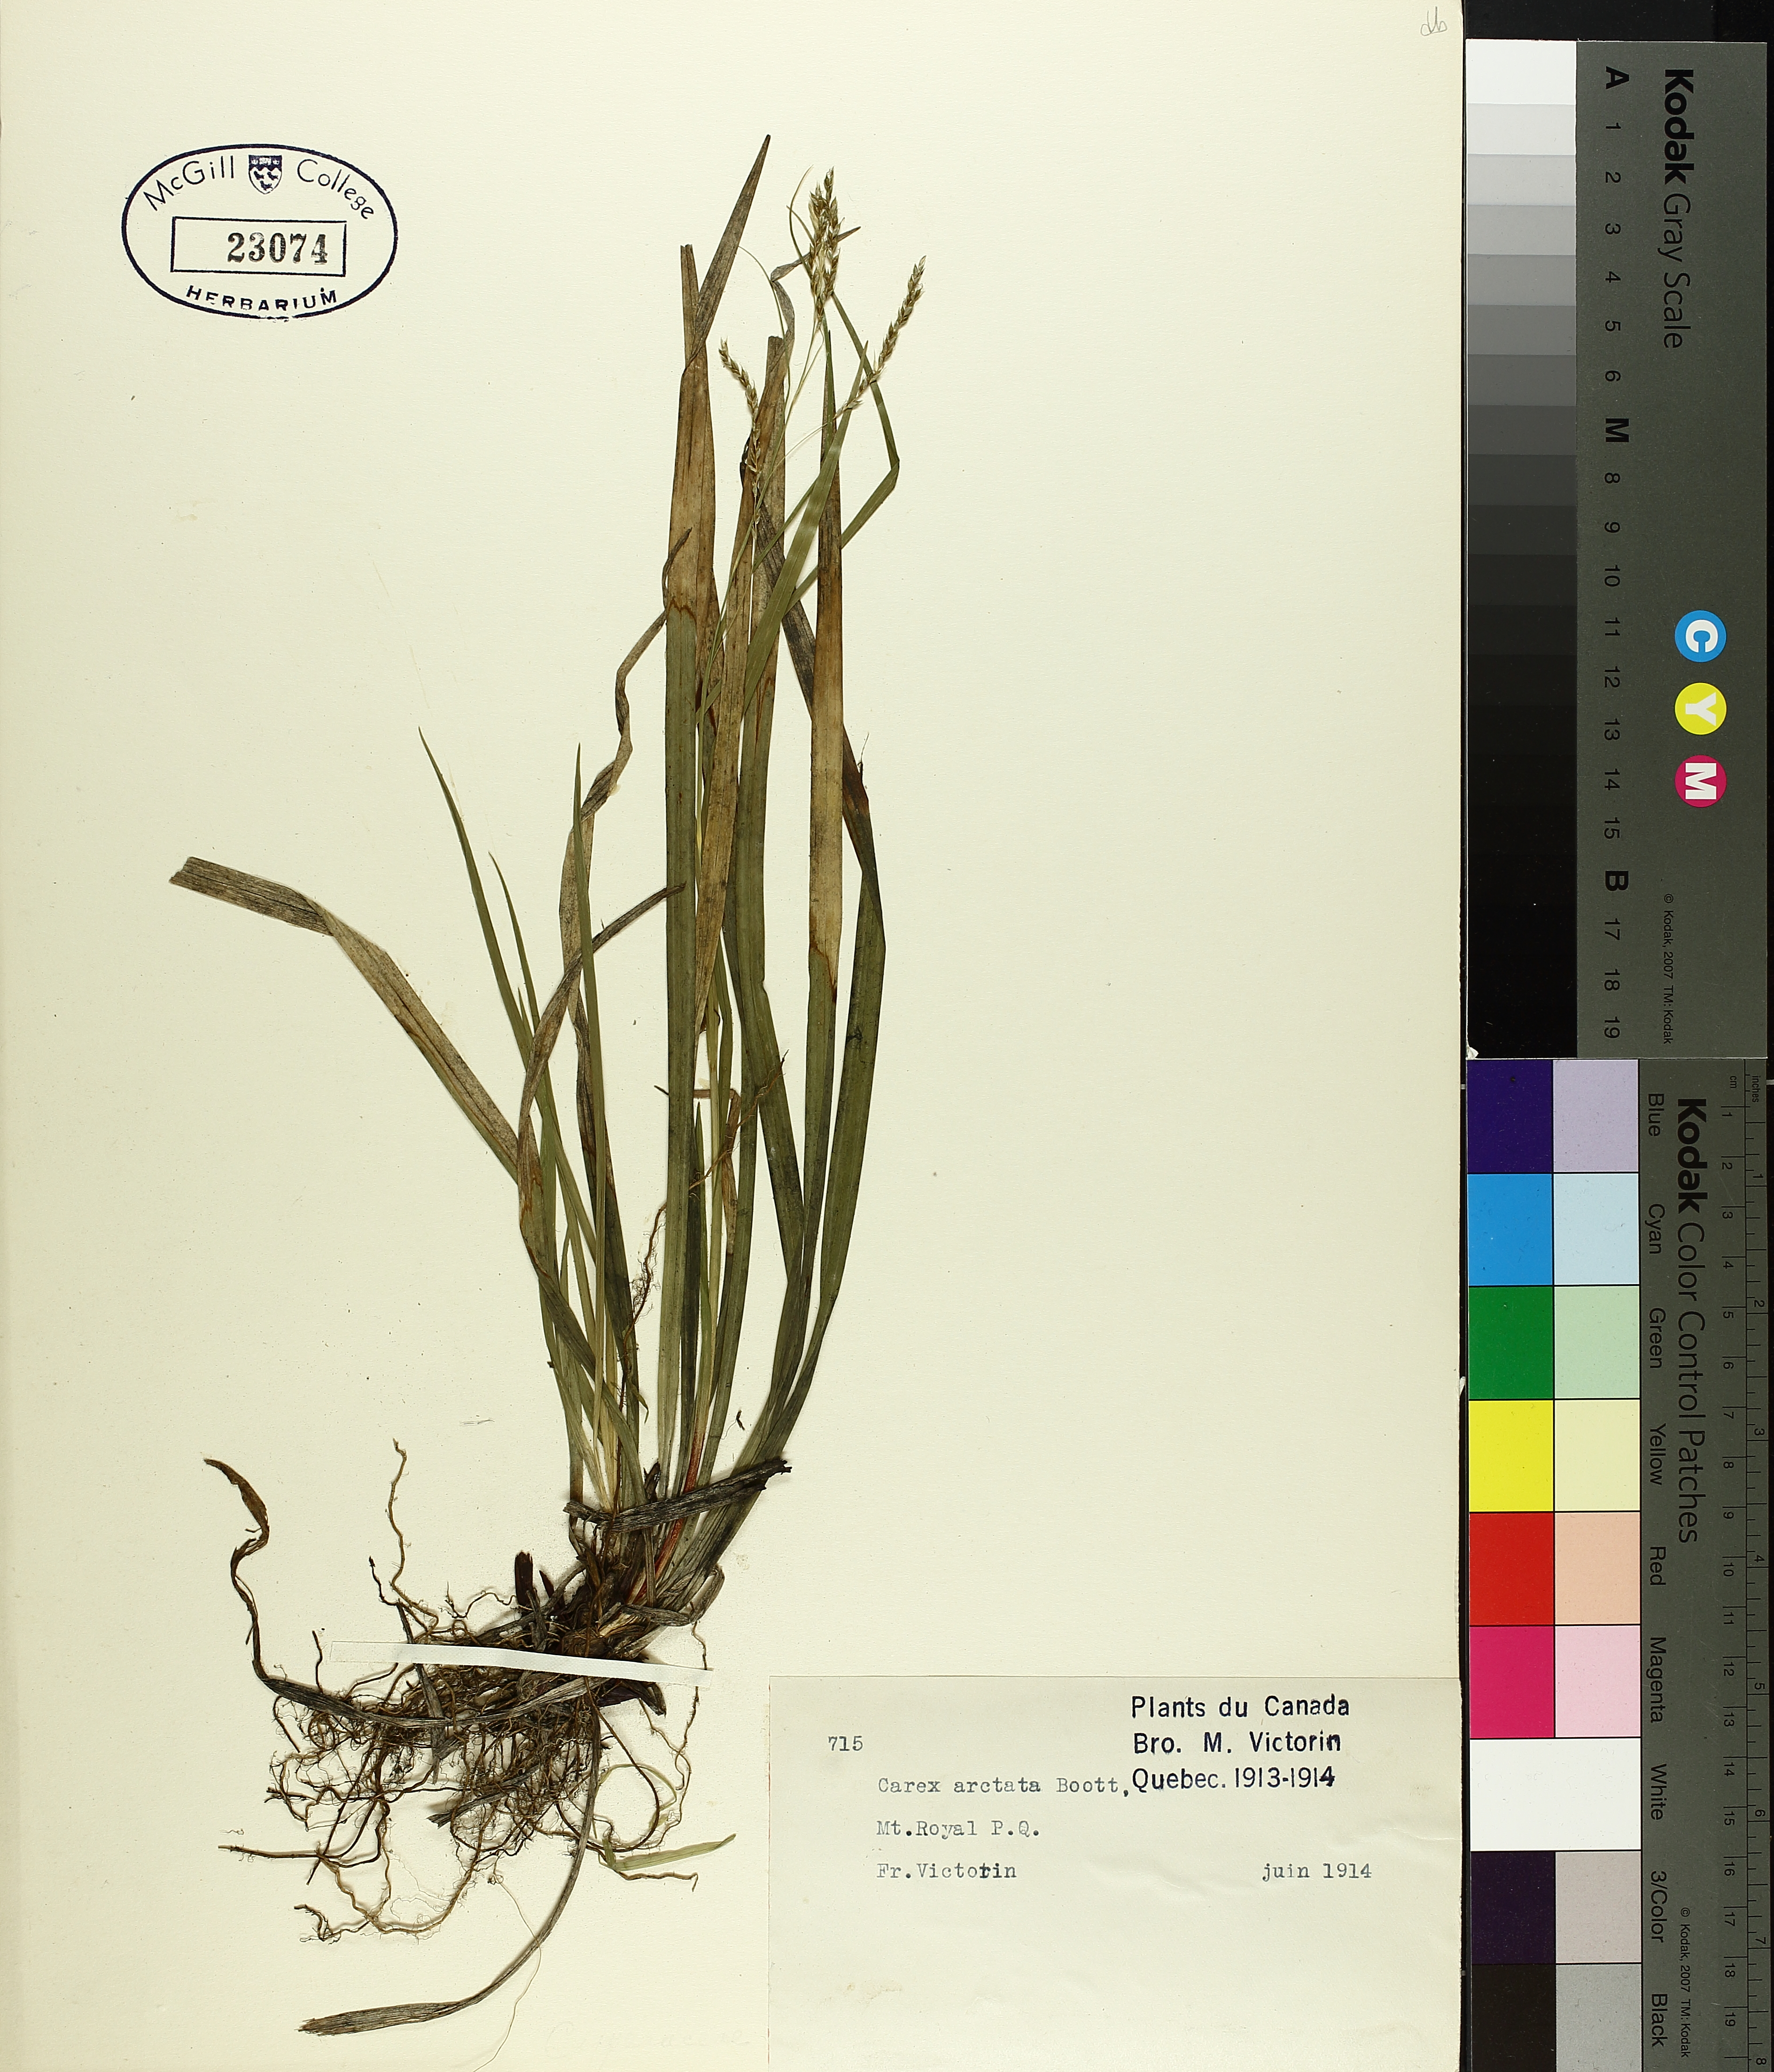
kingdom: Plantae
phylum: Tracheophyta
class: Liliopsida
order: Poales
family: Cyperaceae
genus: Carex
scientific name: Carex arctata
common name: Black sedge
